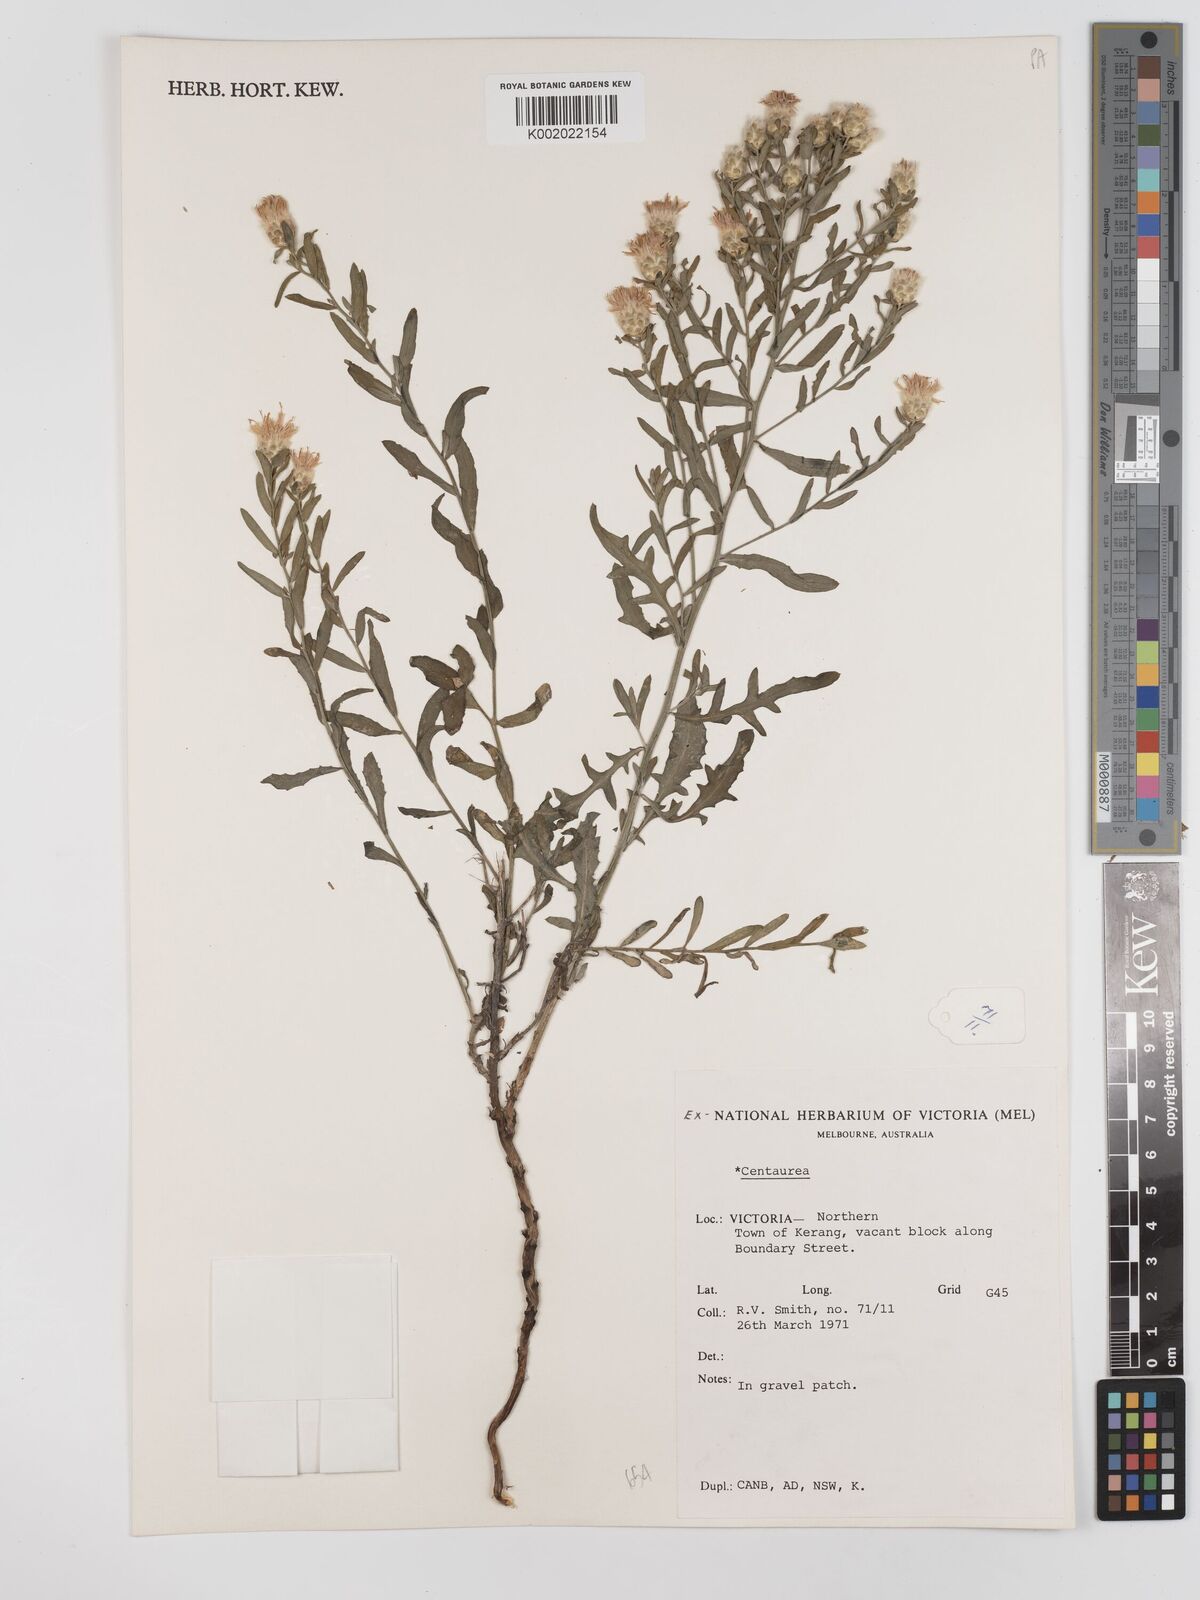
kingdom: Plantae
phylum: Tracheophyta
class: Magnoliopsida
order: Asterales
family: Asteraceae
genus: Centaurea
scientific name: Centaurea
